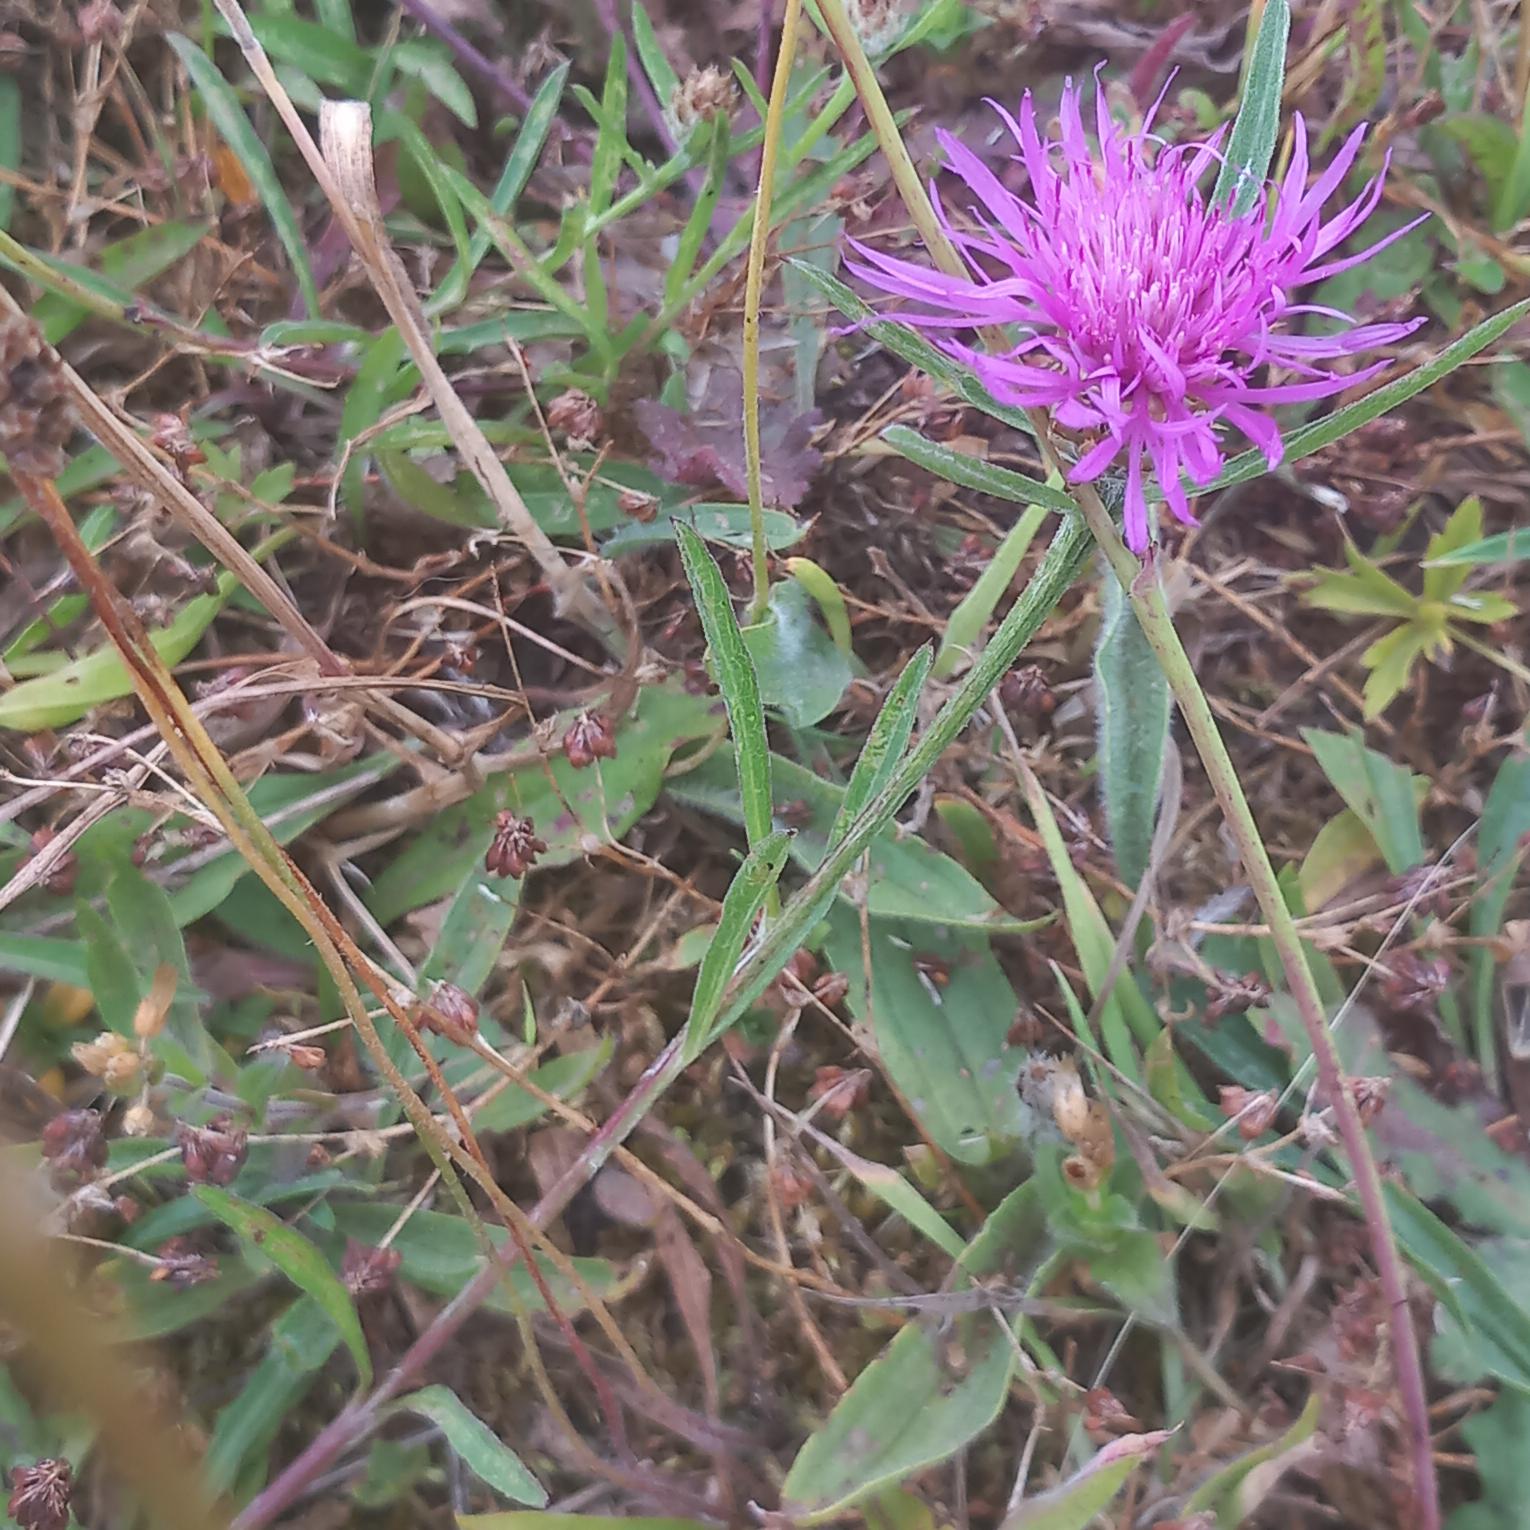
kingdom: Plantae
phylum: Tracheophyta
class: Magnoliopsida
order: Asterales
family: Asteraceae
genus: Centaurea
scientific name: Centaurea jacea
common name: Almindelig knopurt
